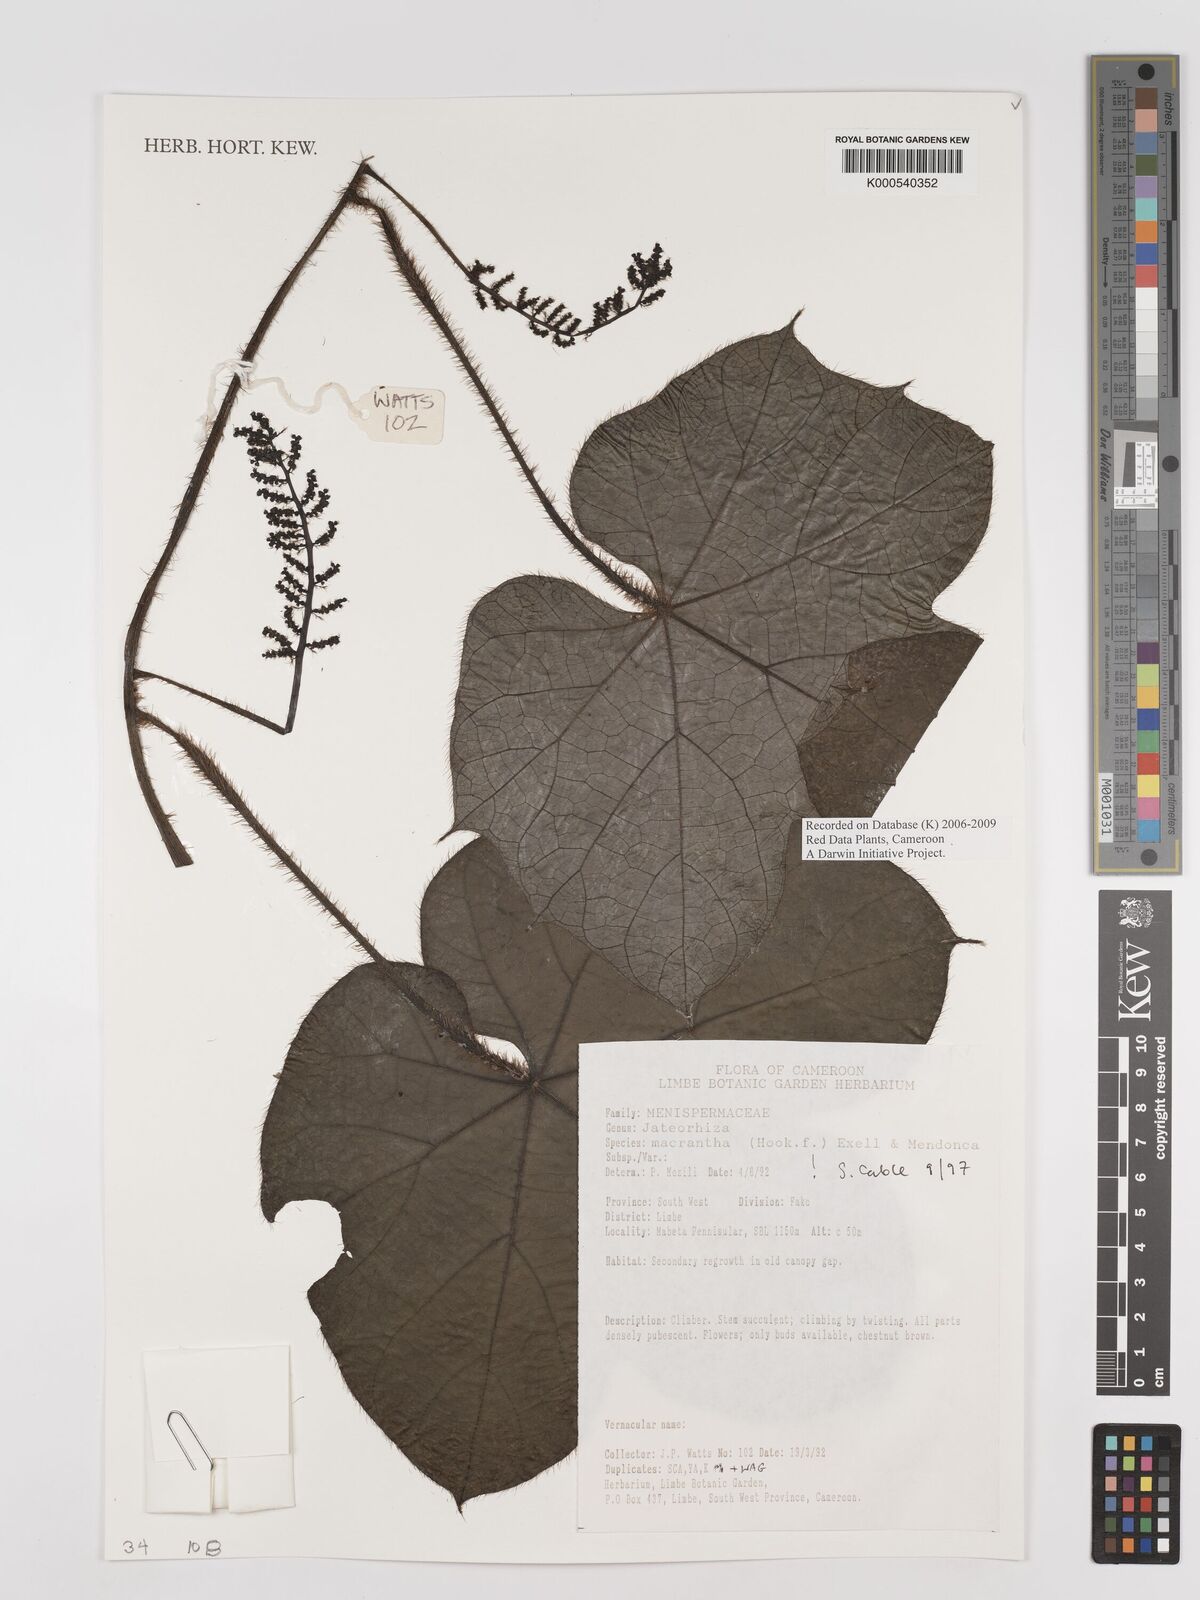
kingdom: Plantae
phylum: Tracheophyta
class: Magnoliopsida
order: Ranunculales
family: Menispermaceae
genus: Jateorhiza
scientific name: Jateorhiza
